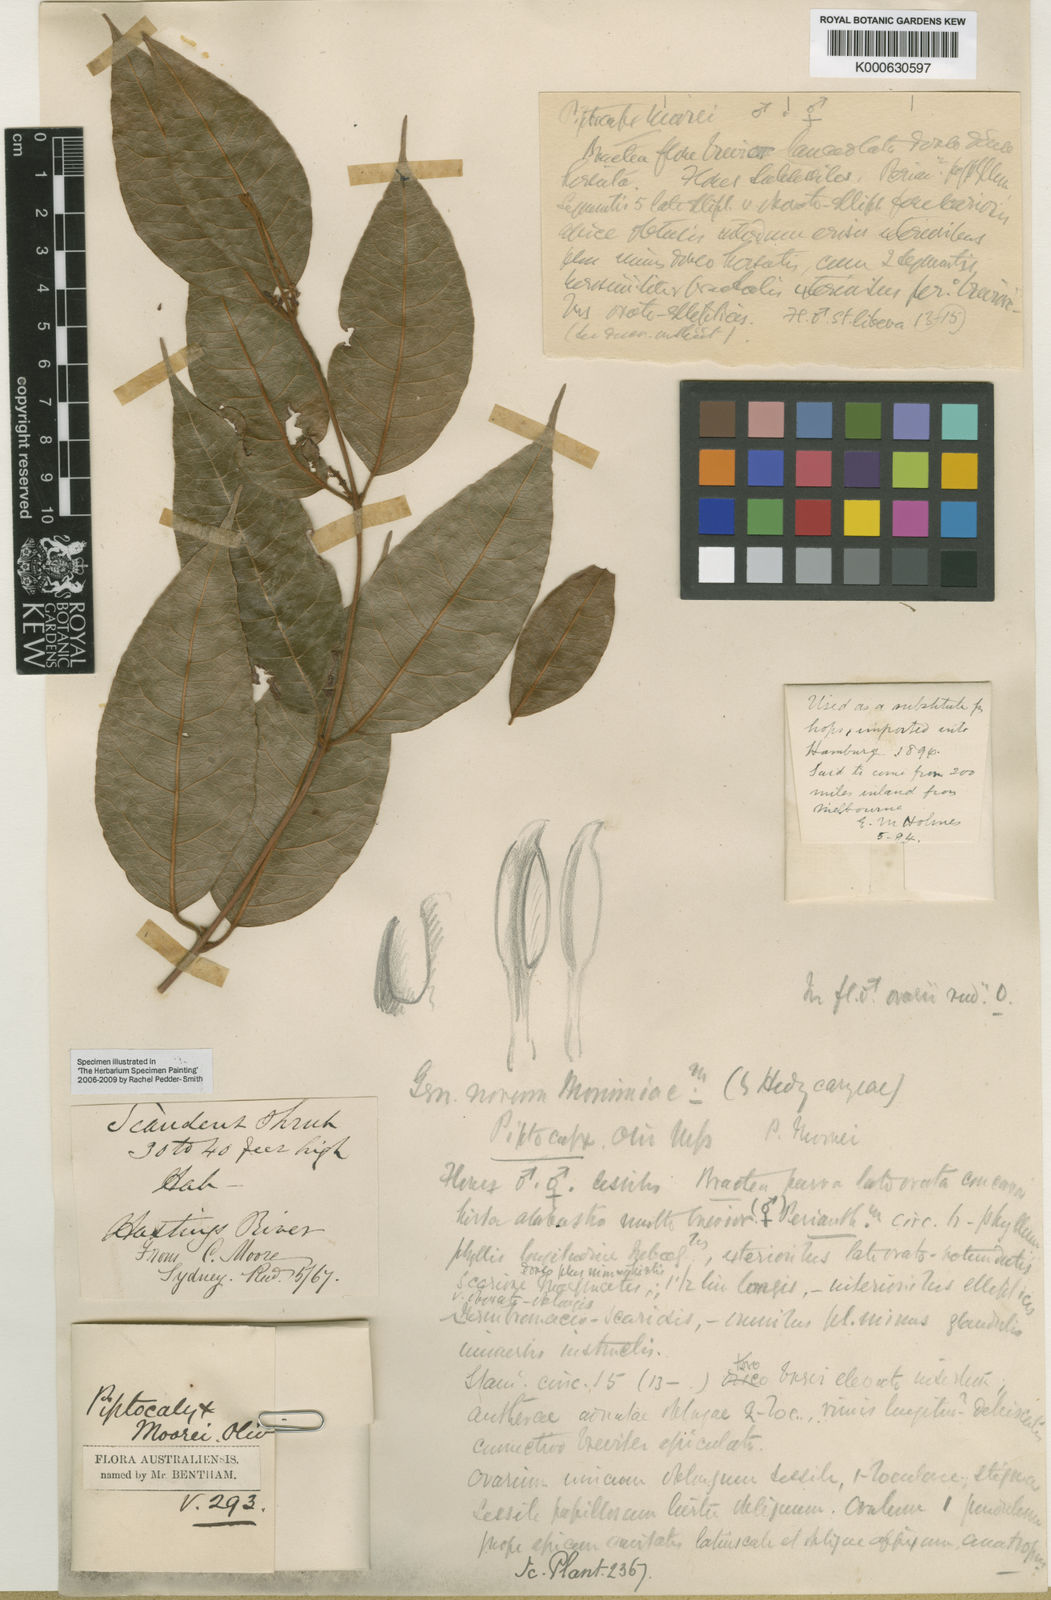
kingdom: Plantae
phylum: Tracheophyta
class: Magnoliopsida
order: Austrobaileyales
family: Trimeniaceae
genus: Trimenia
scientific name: Trimenia papuana
